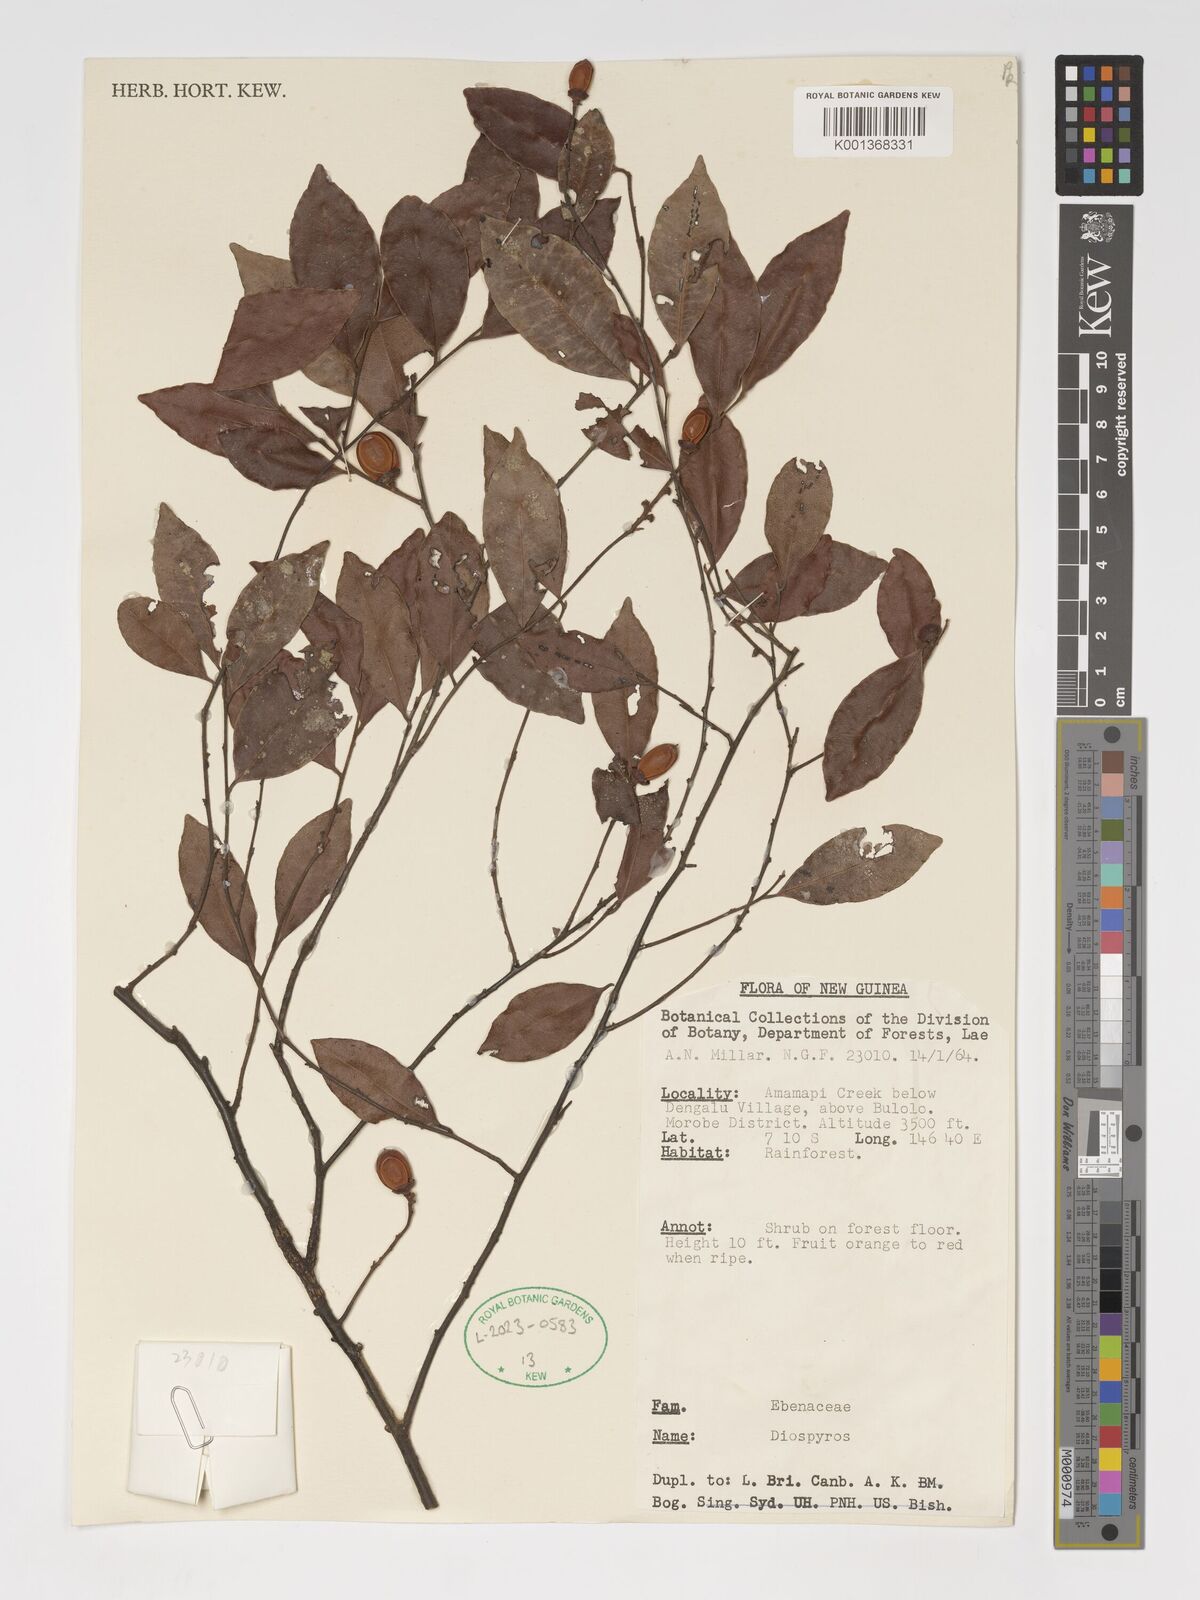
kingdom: Plantae
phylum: Tracheophyta
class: Magnoliopsida
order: Ericales
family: Ebenaceae
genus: Diospyros
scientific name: Diospyros
